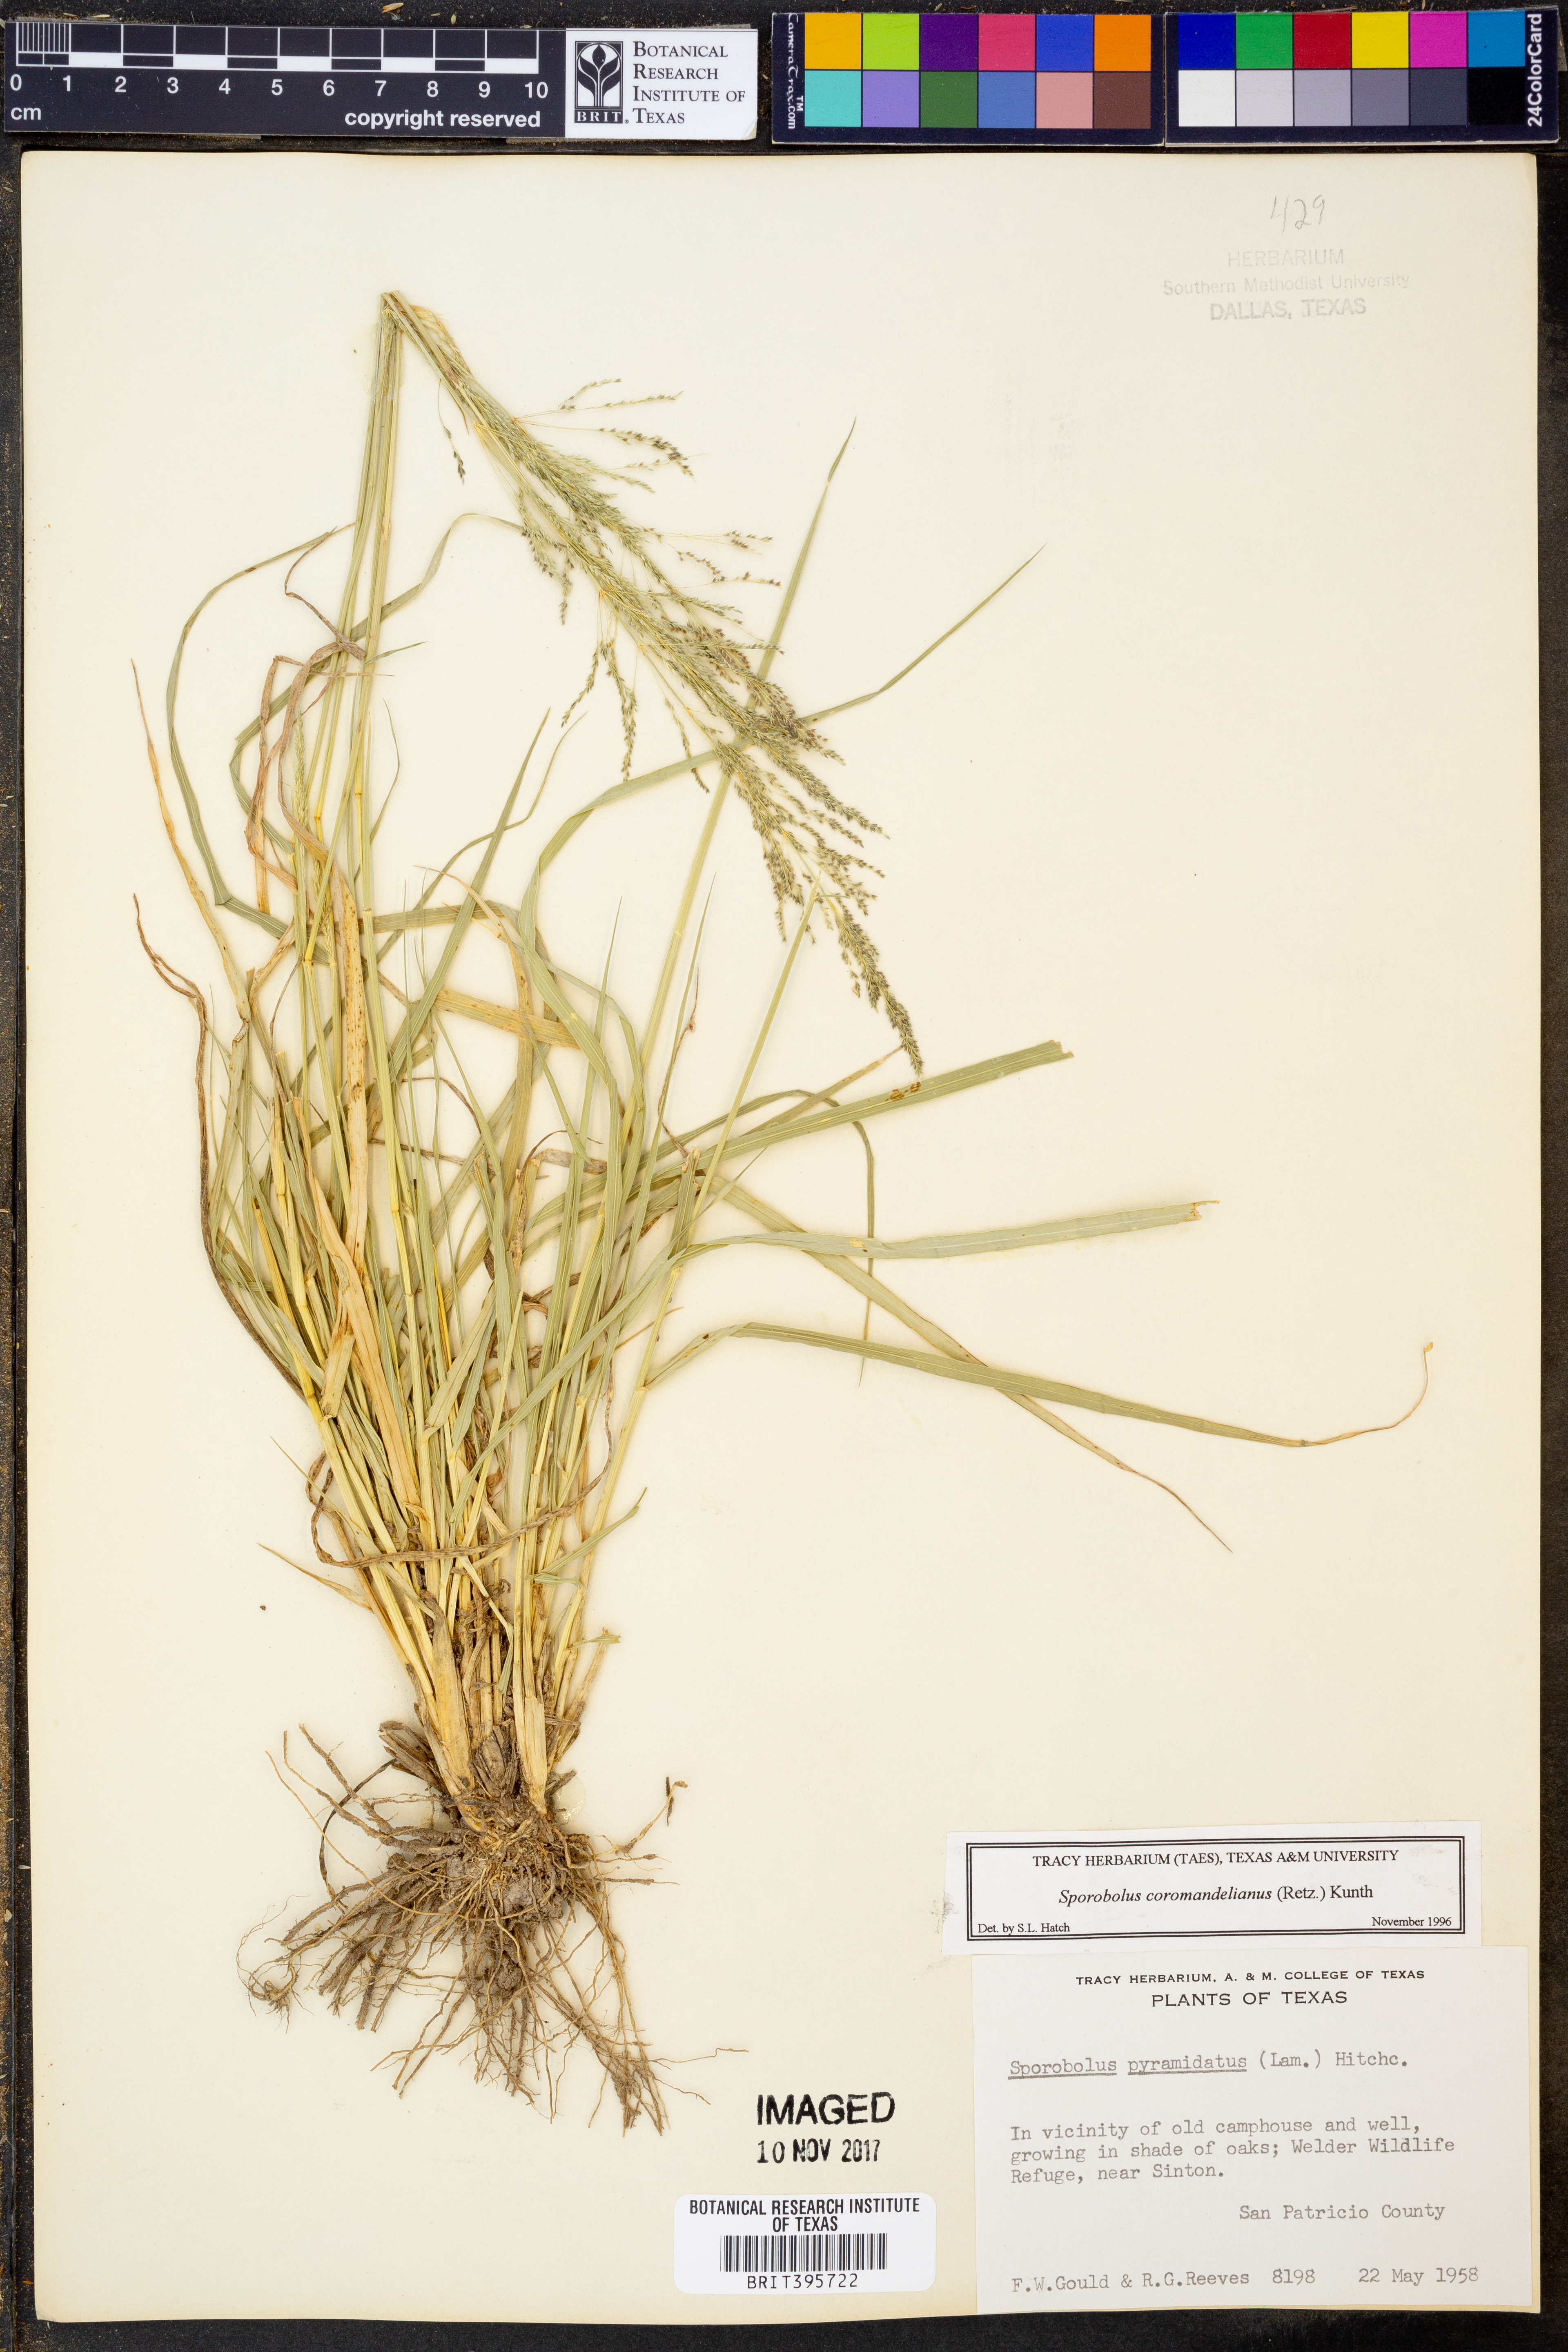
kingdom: Plantae
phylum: Tracheophyta
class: Liliopsida
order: Poales
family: Poaceae
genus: Sporobolus
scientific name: Sporobolus coromandelianus
